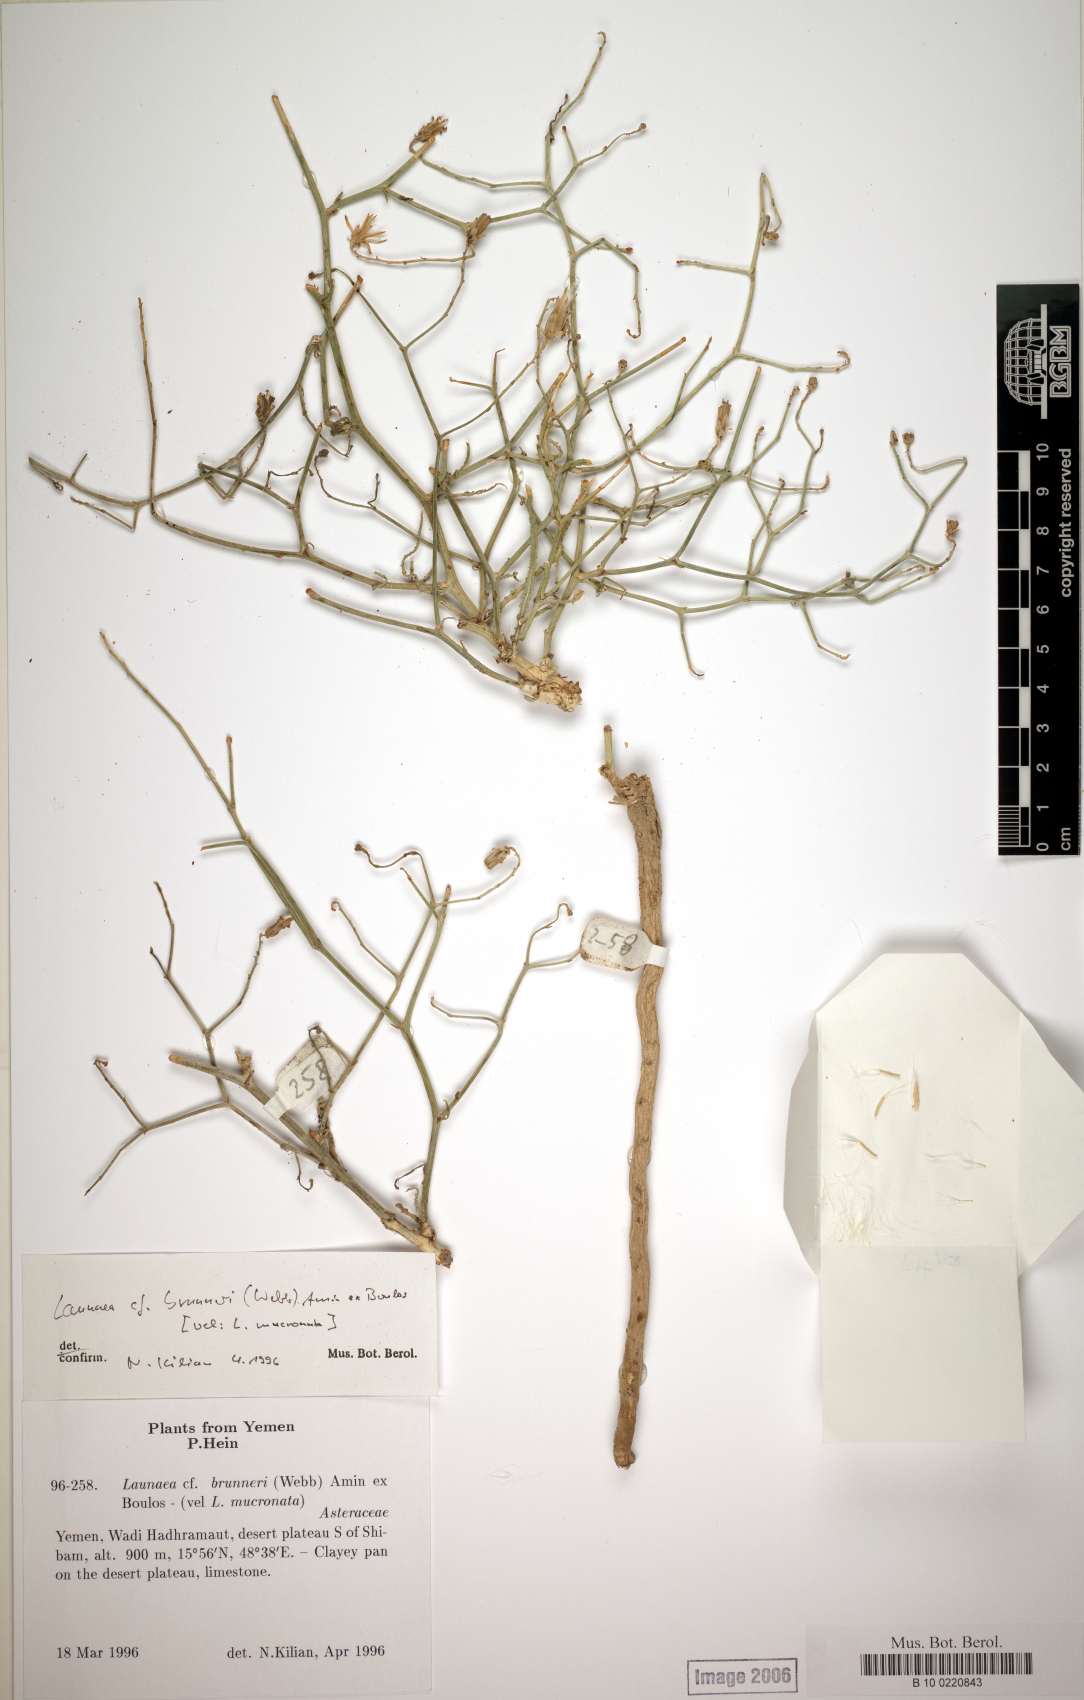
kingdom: Plantae
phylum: Tracheophyta
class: Magnoliopsida
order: Asterales
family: Asteraceae
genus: Launaea
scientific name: Launaea brunneri
